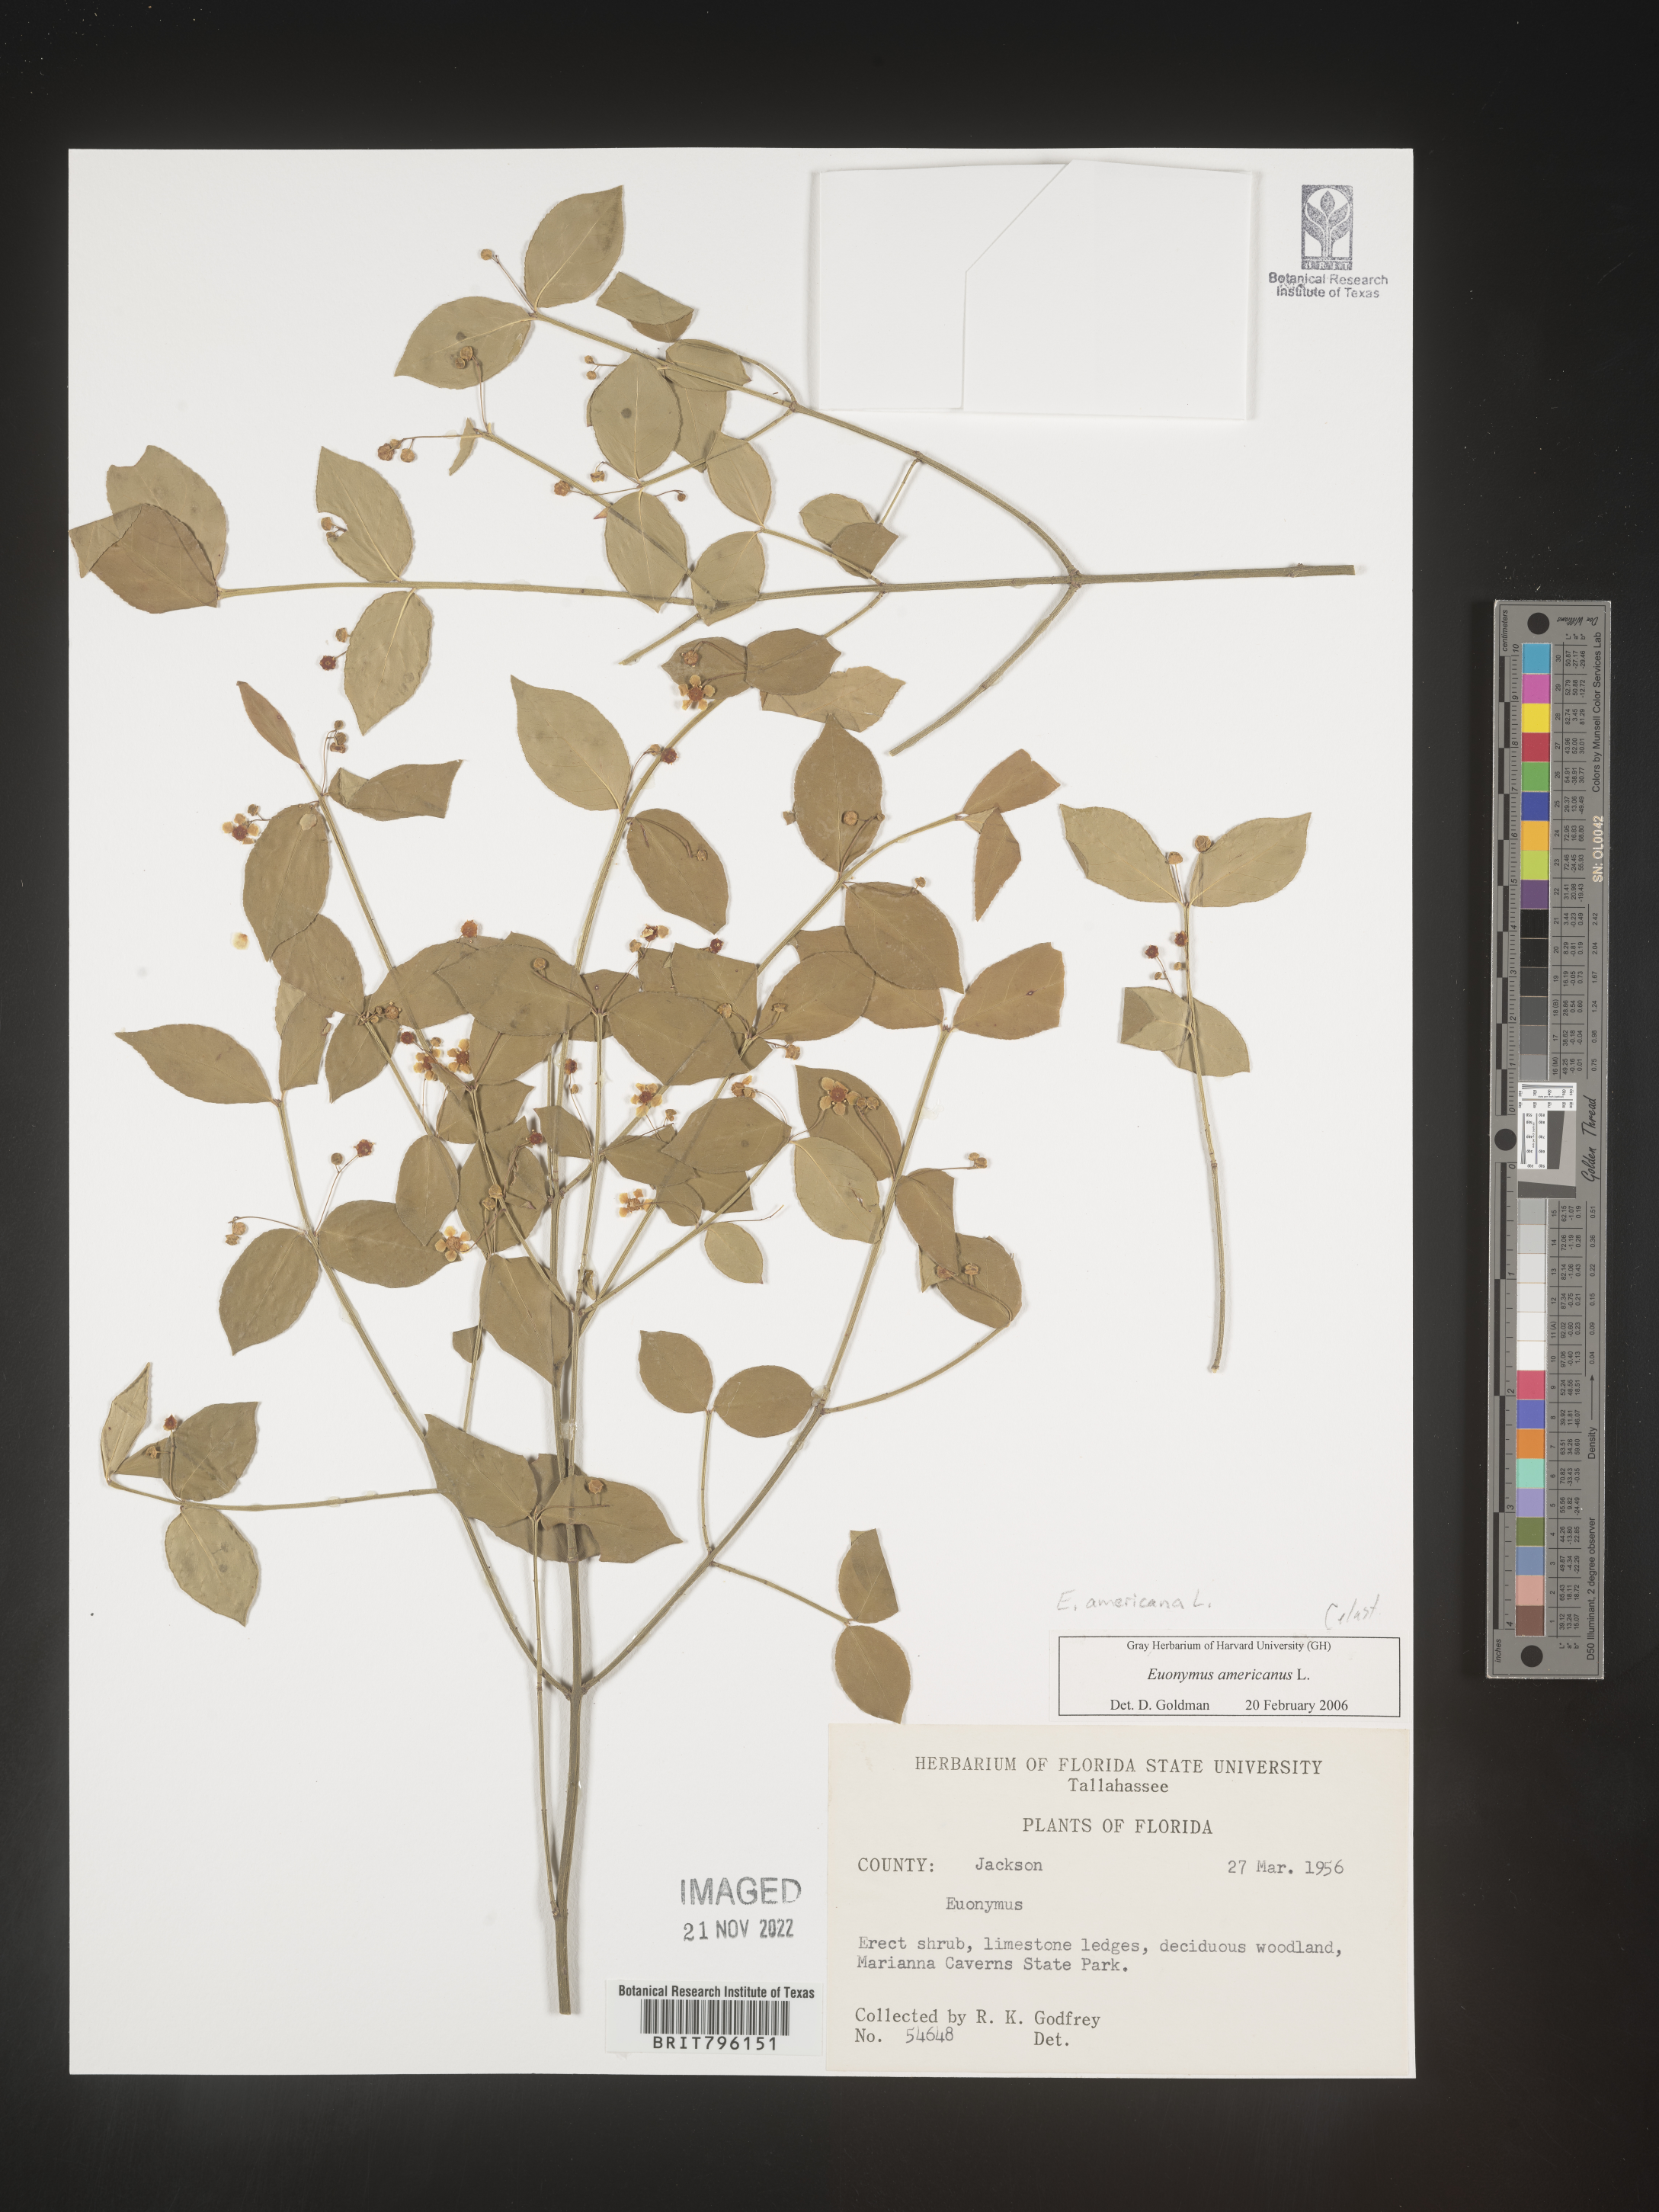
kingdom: Plantae
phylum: Tracheophyta
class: Magnoliopsida
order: Celastrales
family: Celastraceae
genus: Euonymus
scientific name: Euonymus americanus
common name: Bursting-heart
